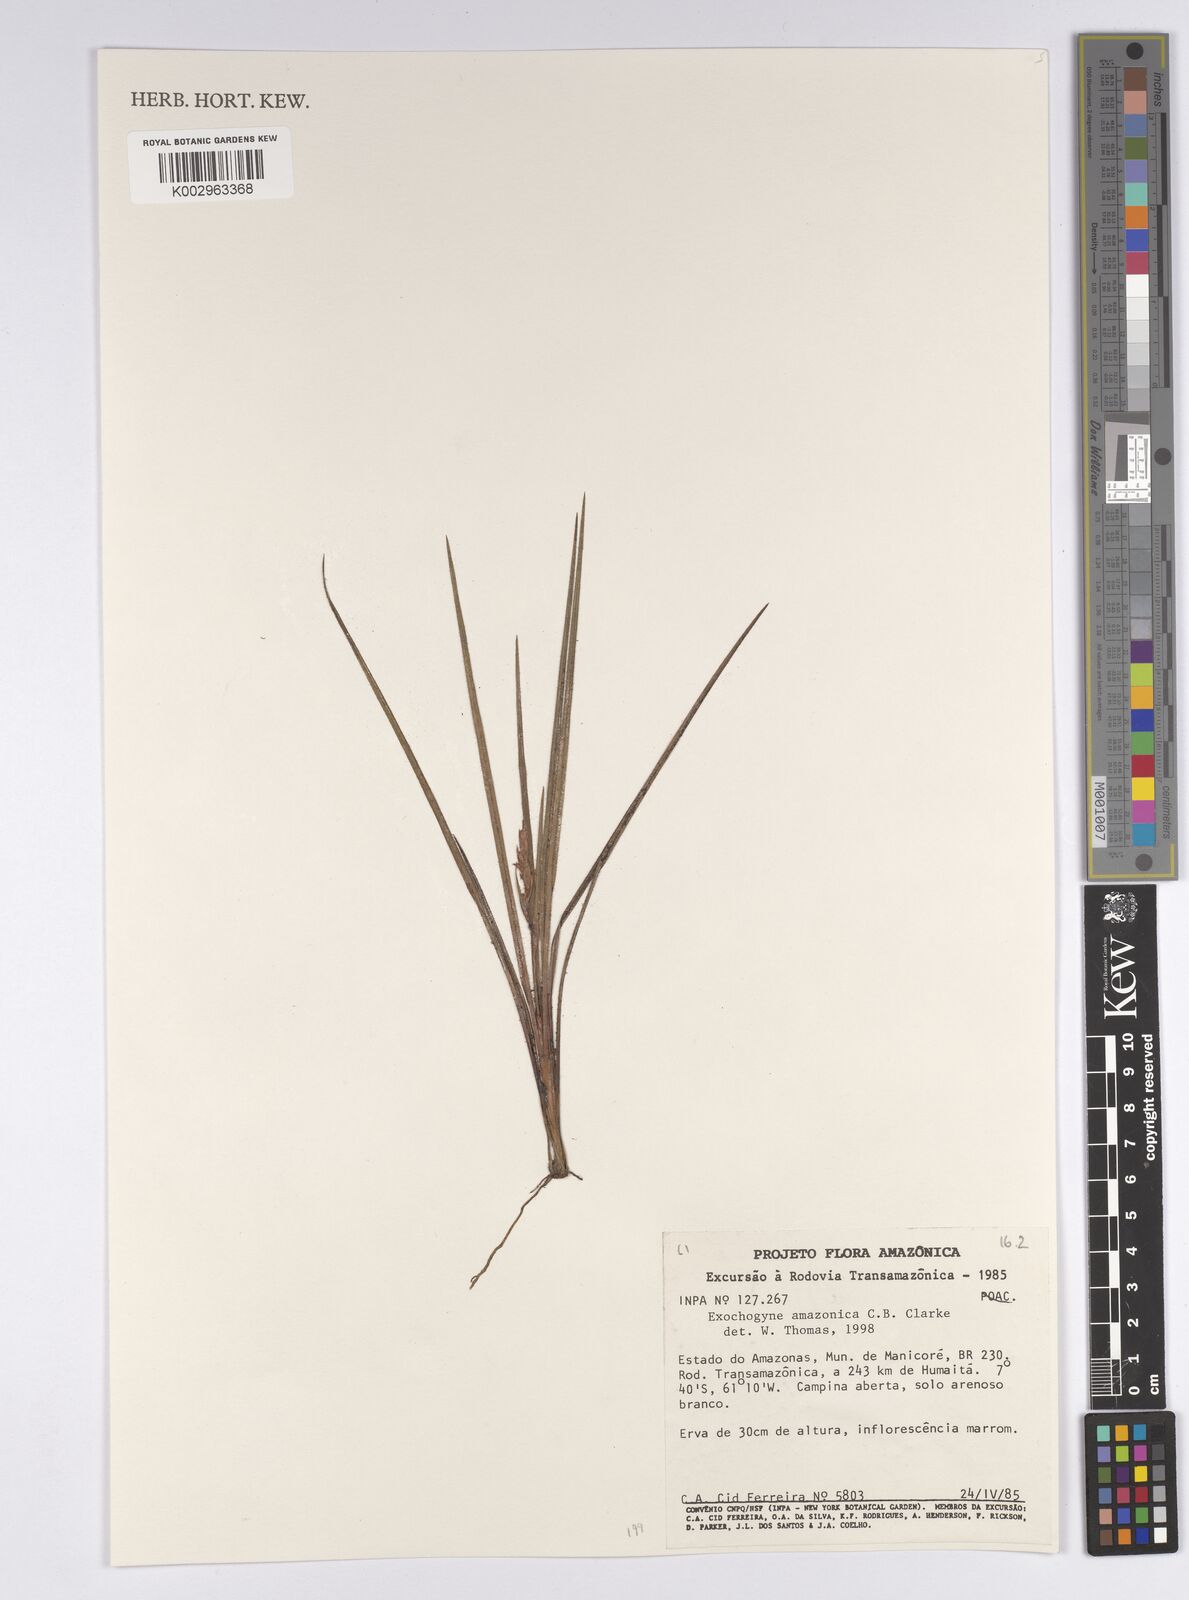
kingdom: Plantae
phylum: Tracheophyta
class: Liliopsida
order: Poales
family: Cyperaceae
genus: Exochogyne
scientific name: Exochogyne amazonica
